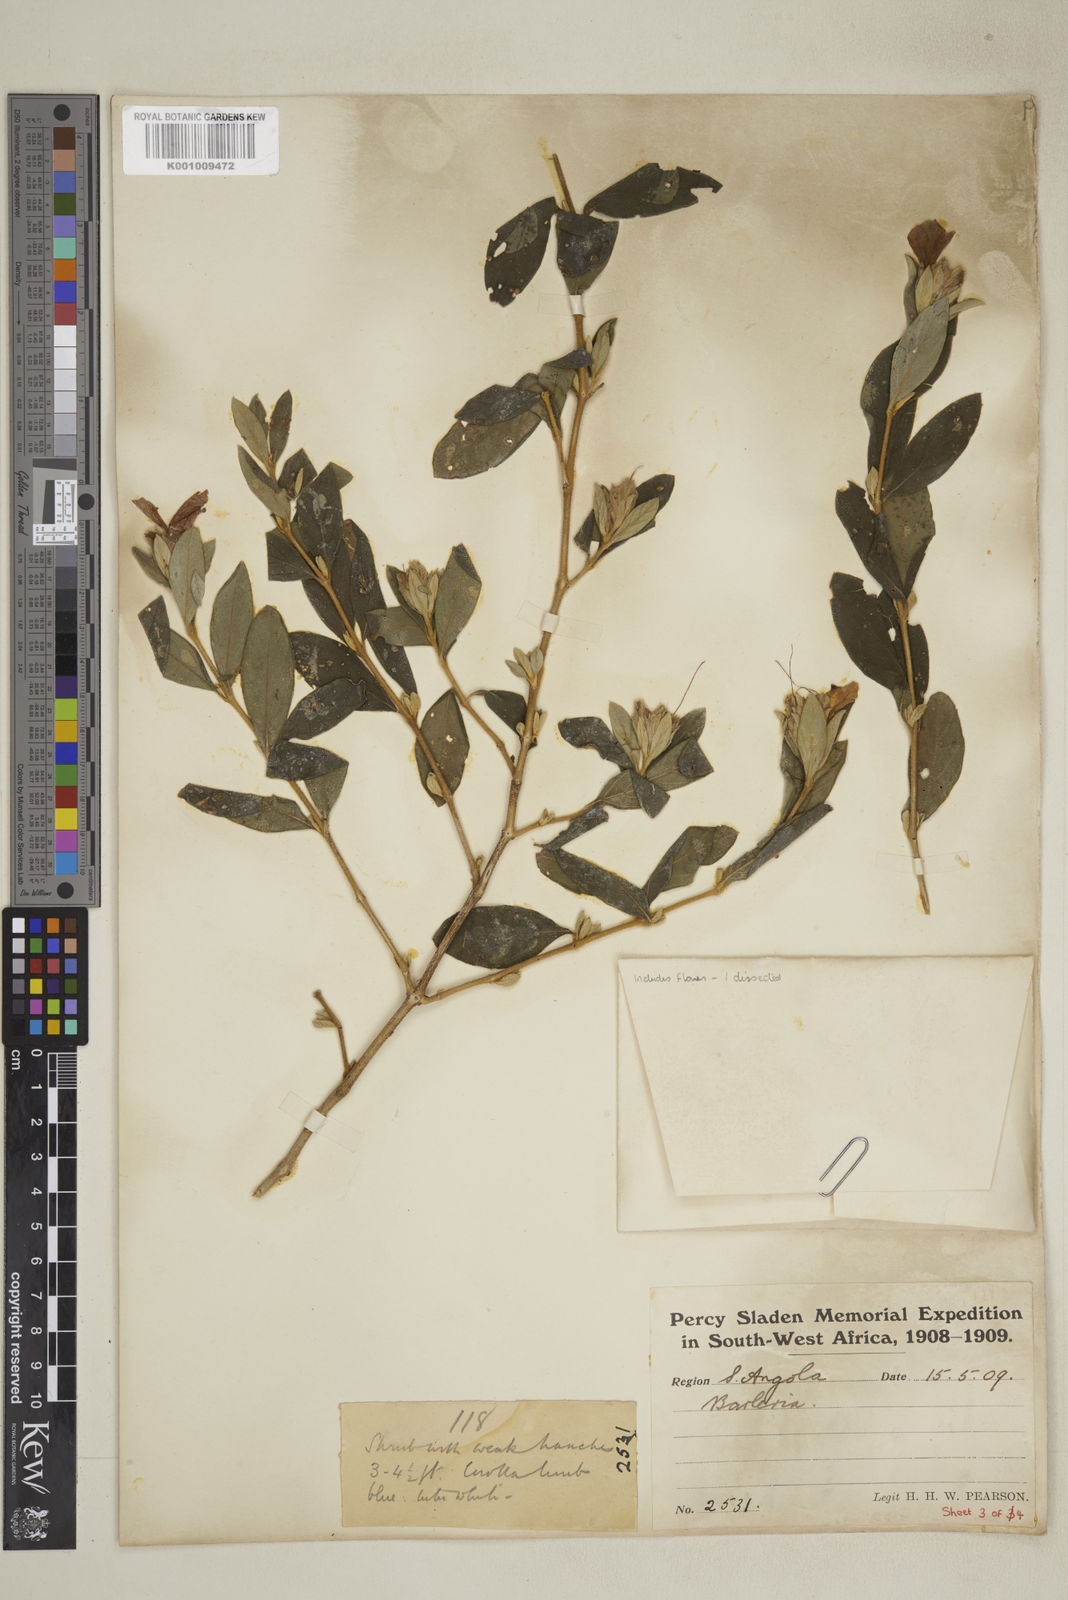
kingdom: Plantae
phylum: Tracheophyta
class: Magnoliopsida
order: Lamiales
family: Acanthaceae
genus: Barleria
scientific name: Barleria taitensis
